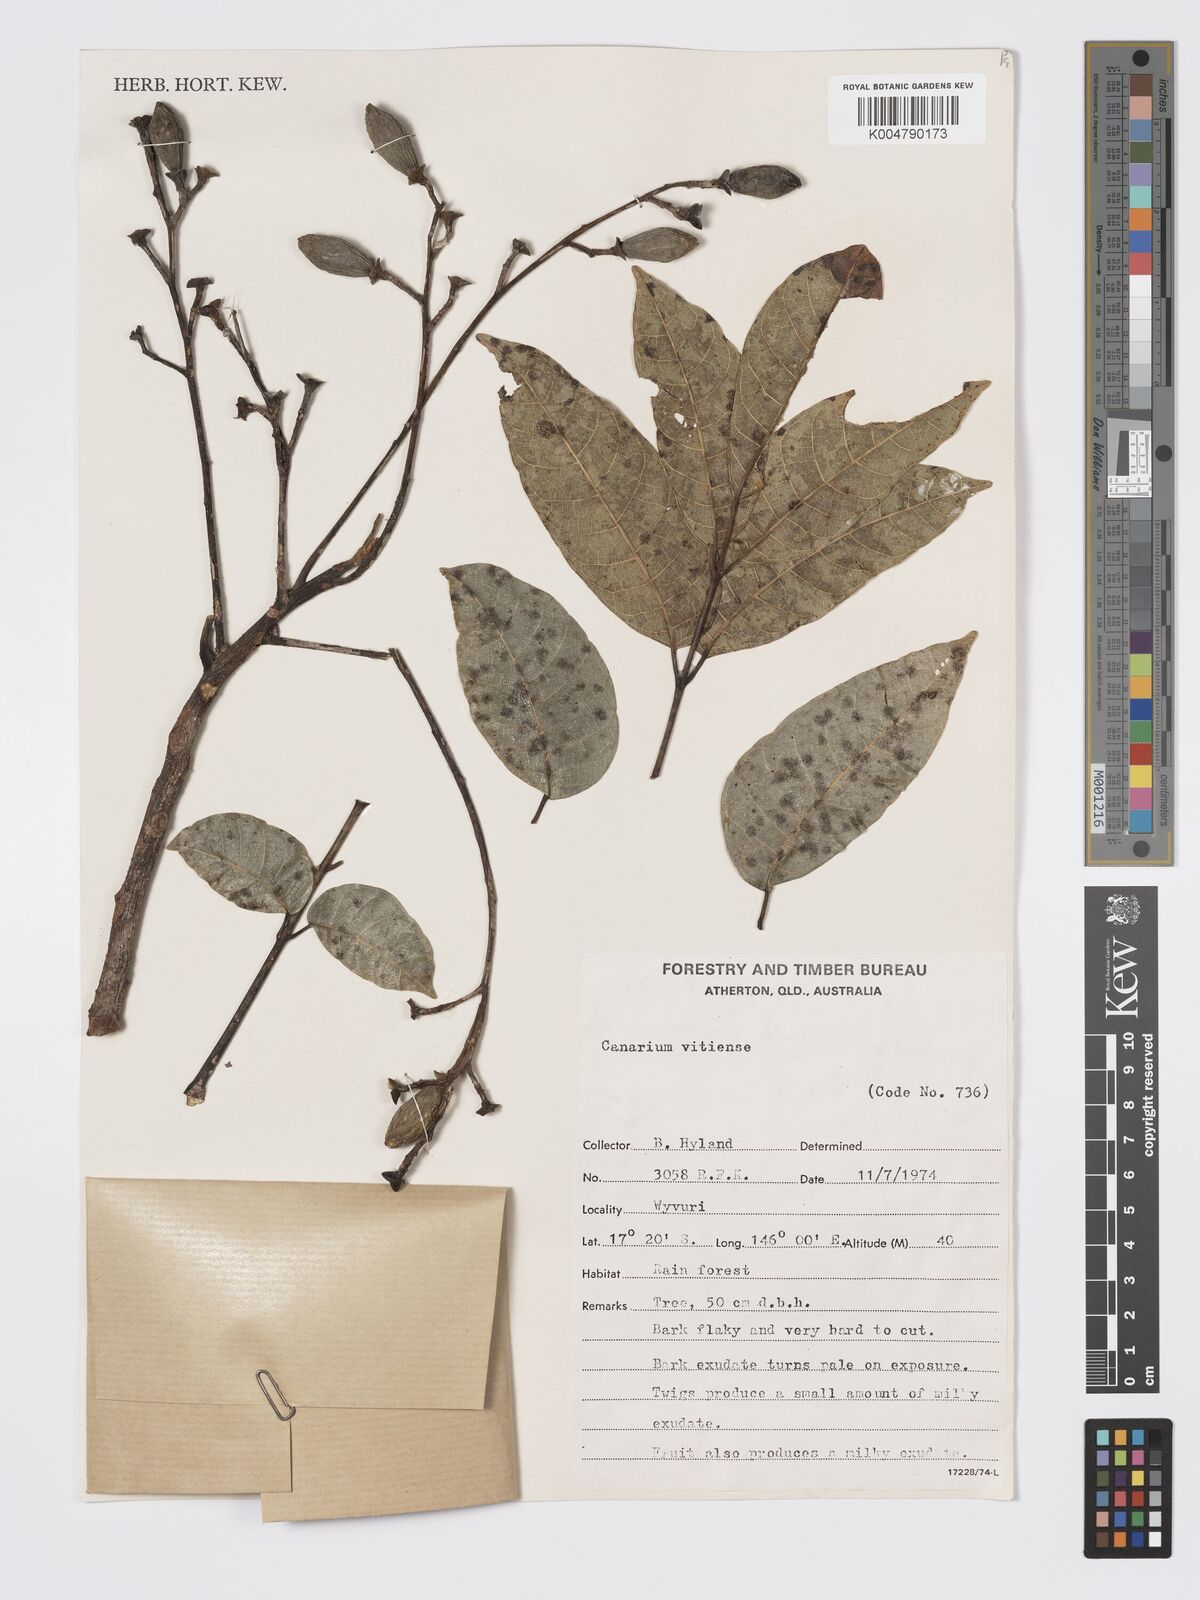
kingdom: Plantae
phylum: Tracheophyta
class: Magnoliopsida
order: Sapindales
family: Burseraceae
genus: Canarium
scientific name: Canarium vitiense
